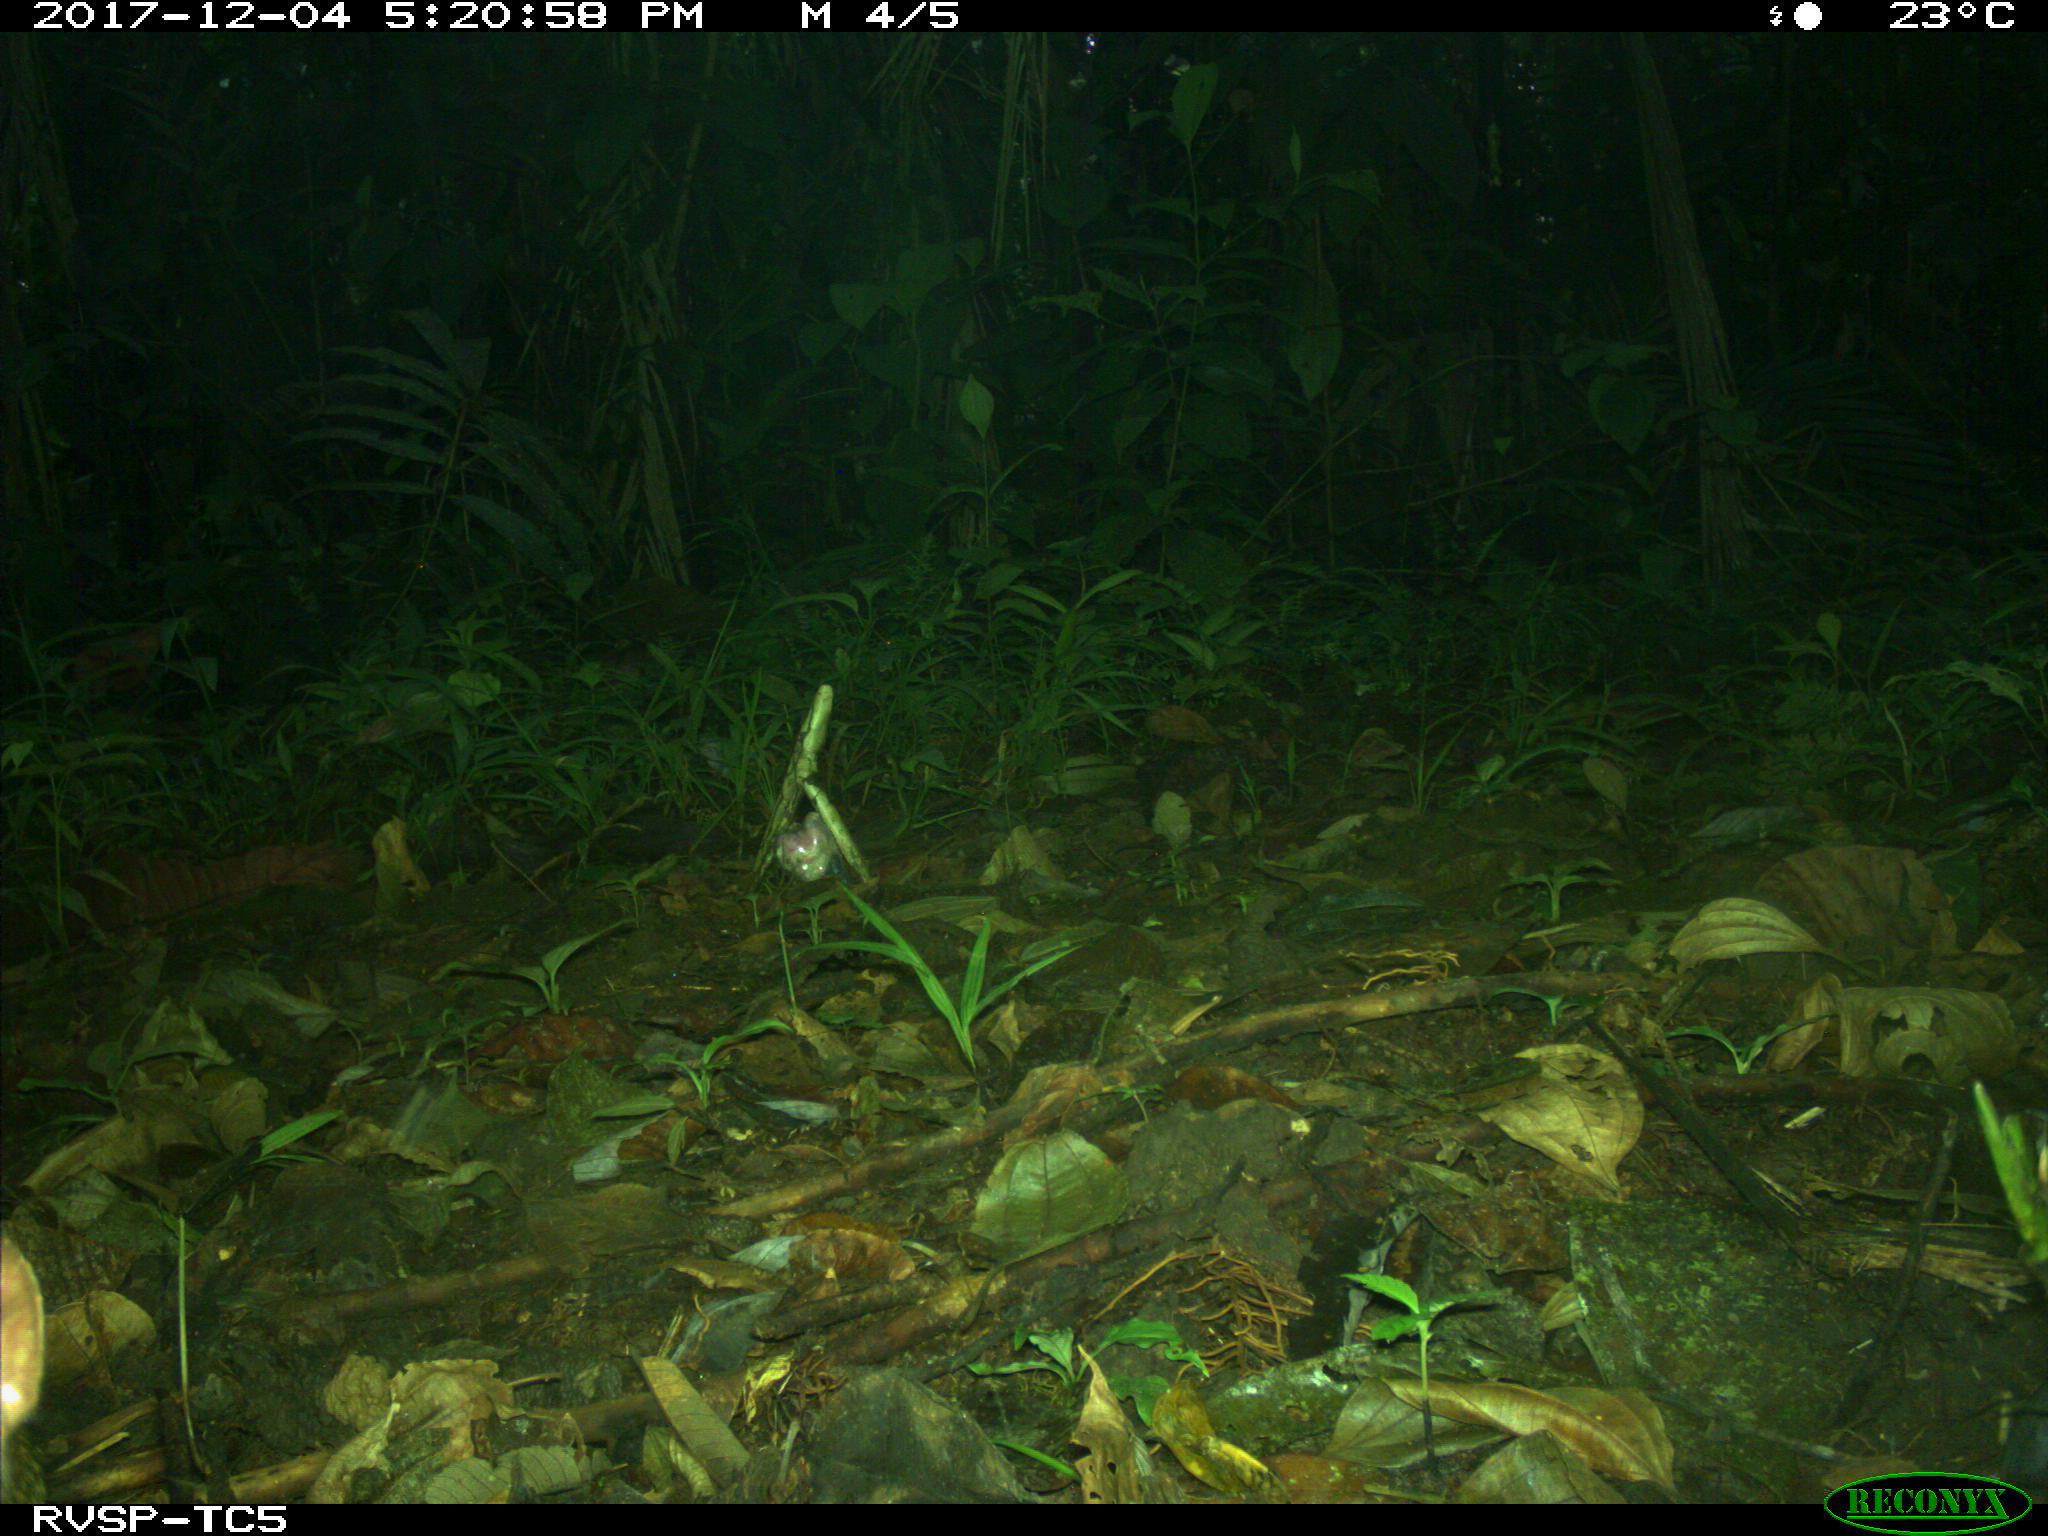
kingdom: Animalia
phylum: Chordata
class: Mammalia
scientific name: Mammalia
